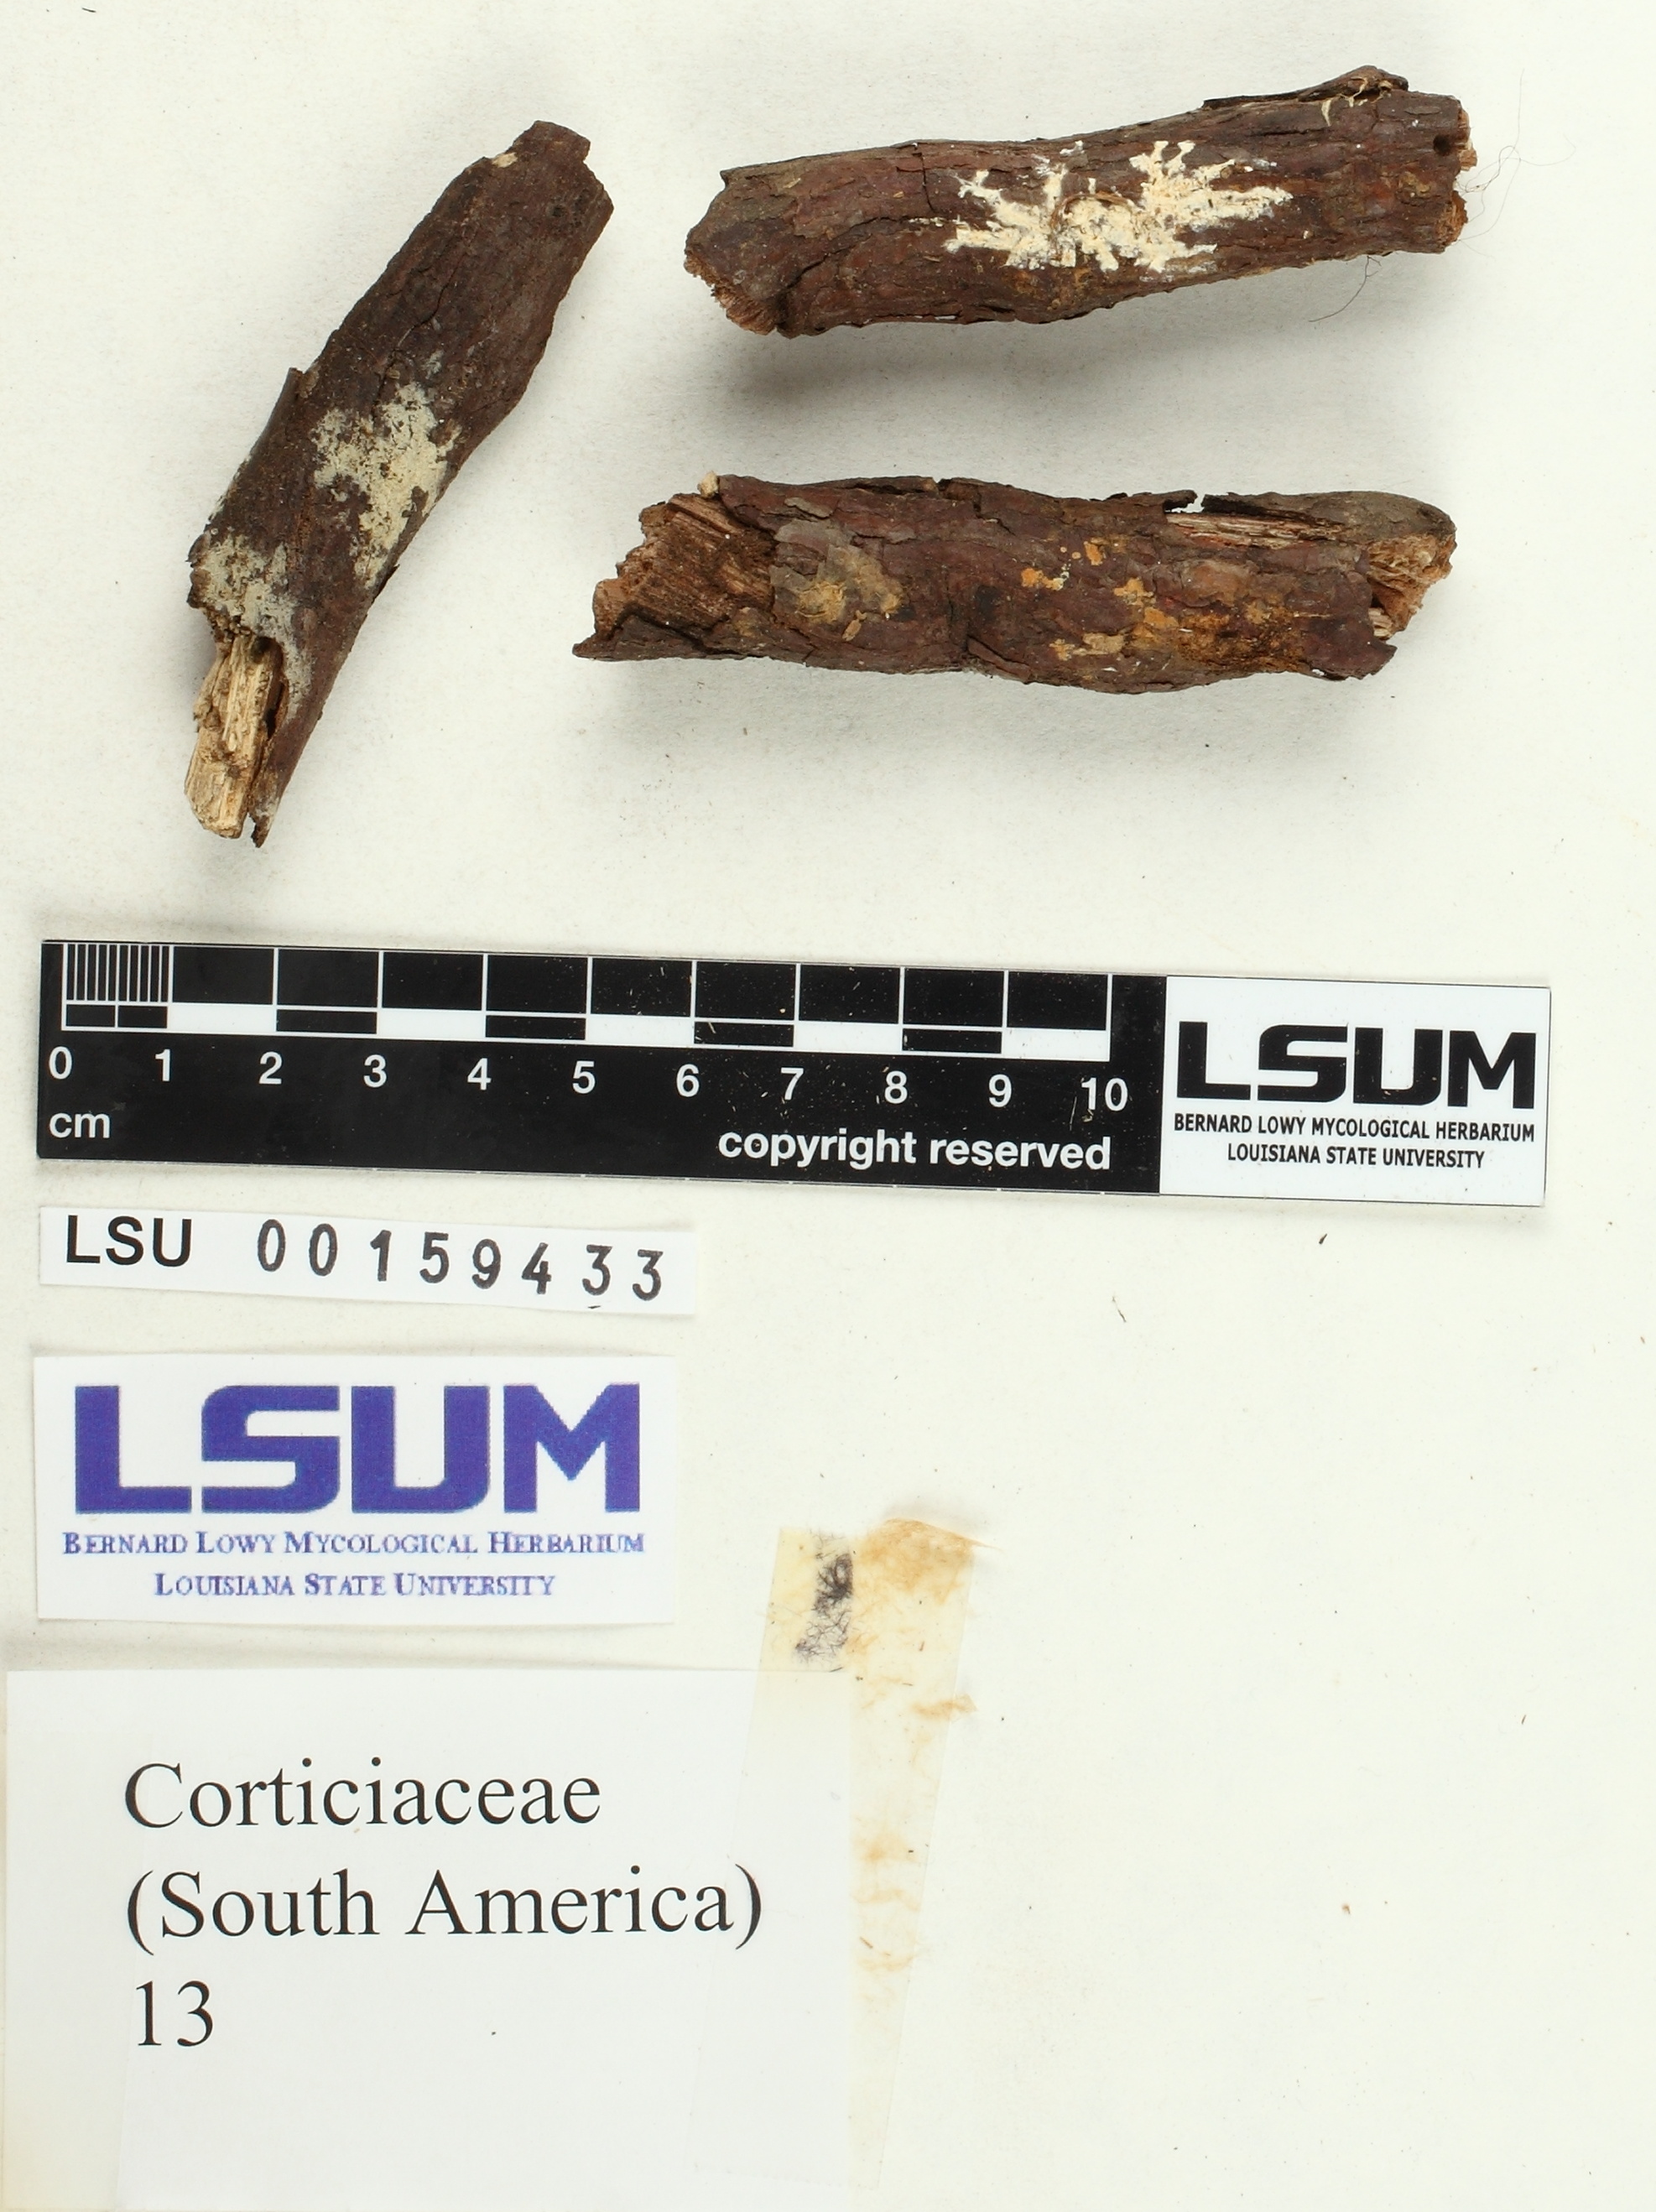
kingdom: Fungi
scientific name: Fungi
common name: Fungi
